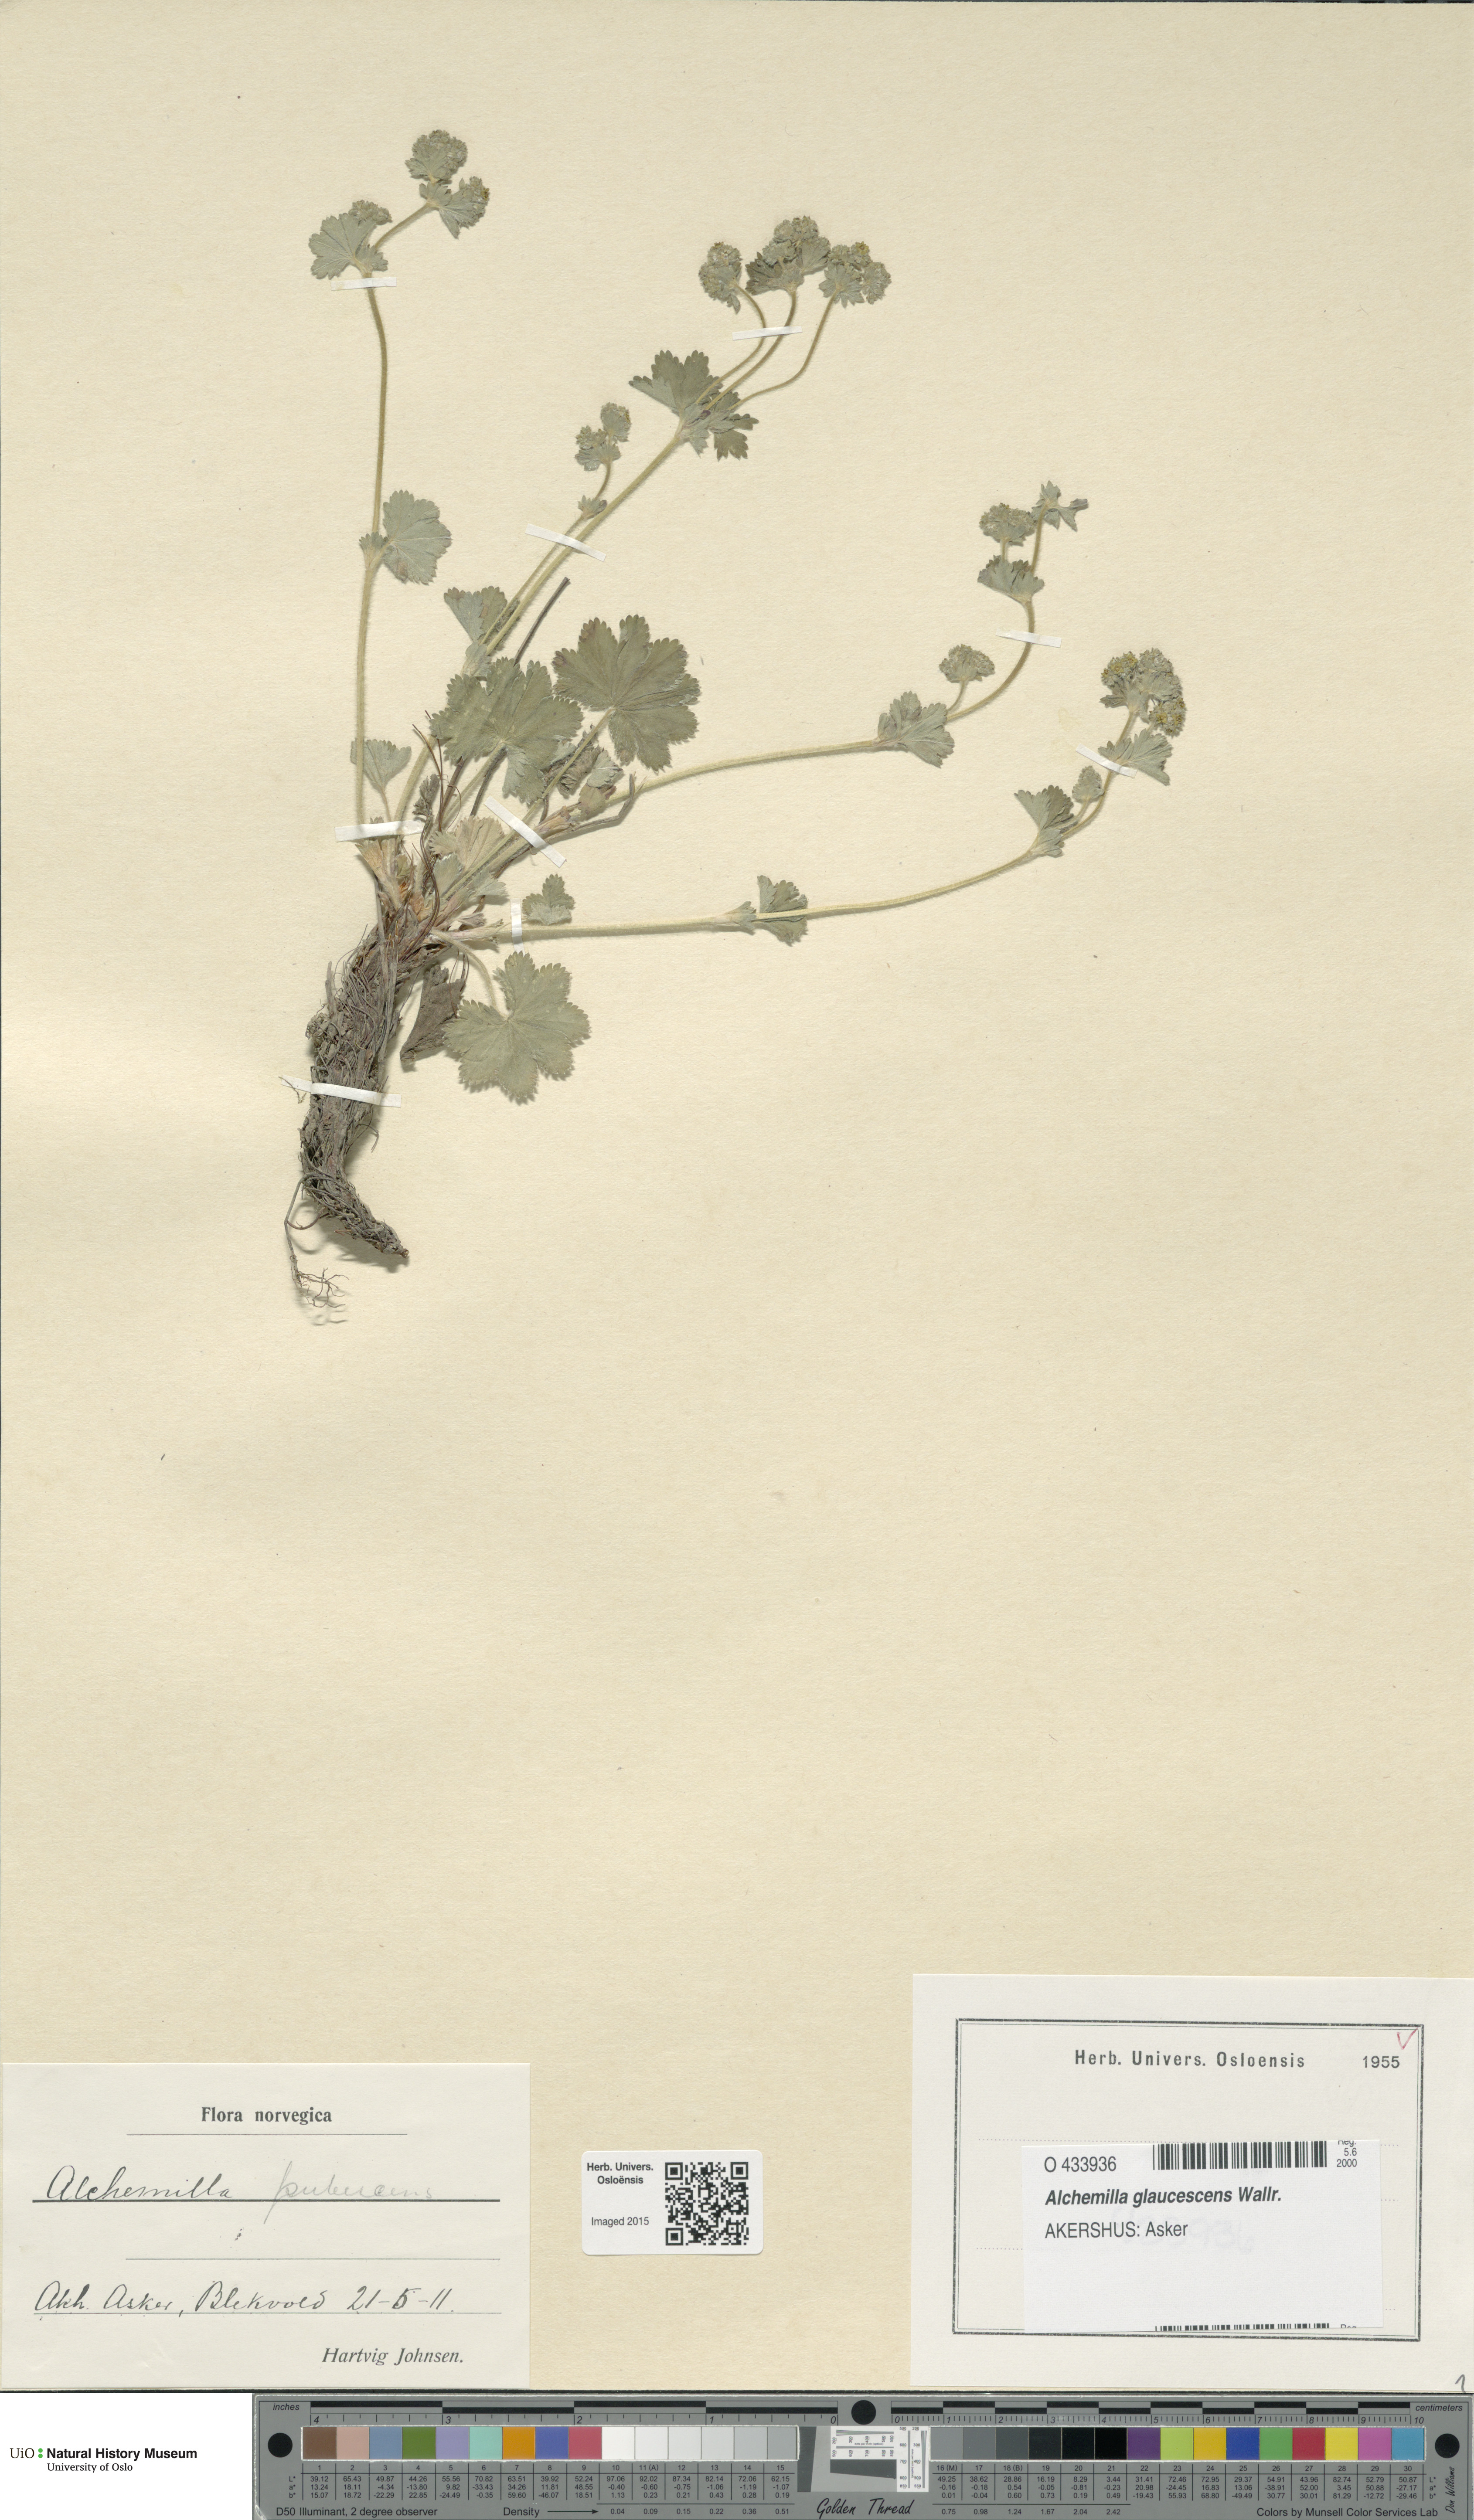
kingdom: Plantae
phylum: Tracheophyta
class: Magnoliopsida
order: Rosales
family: Rosaceae
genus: Alchemilla
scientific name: Alchemilla glaucescens
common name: Silky lady's mantle
